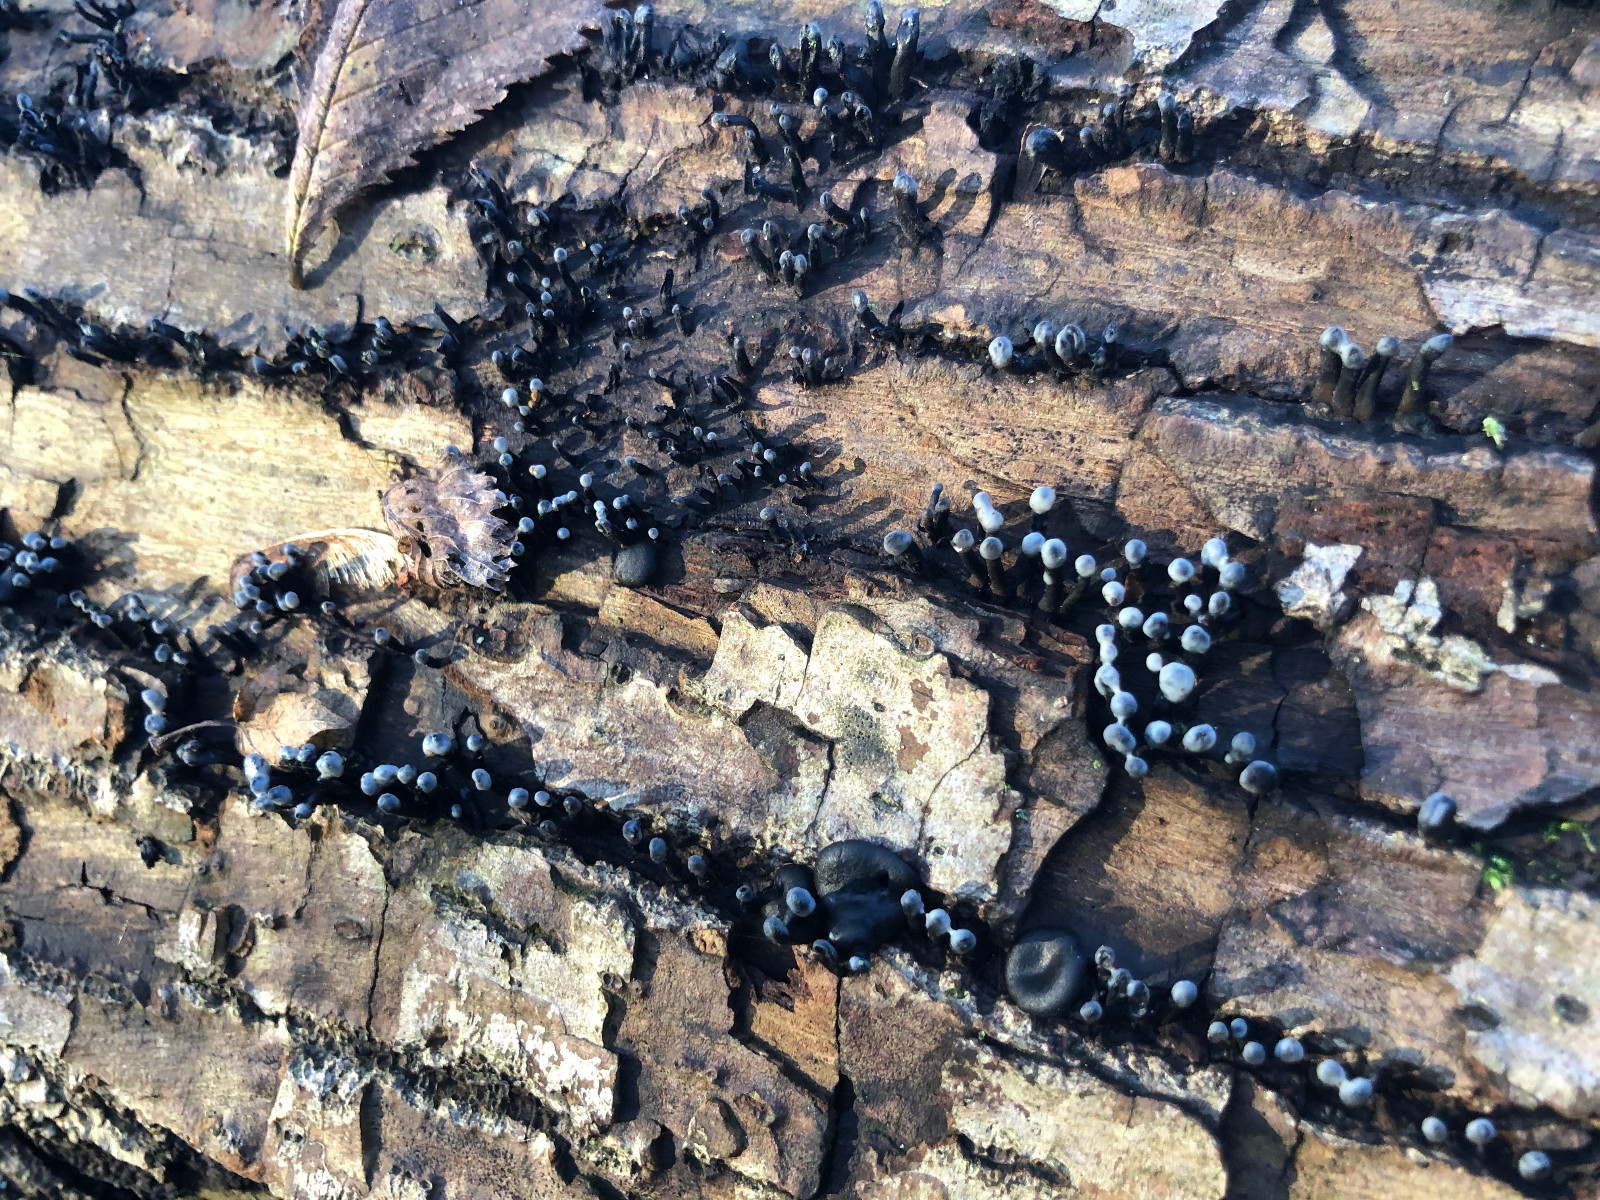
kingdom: Fungi
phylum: Ascomycota
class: Leotiomycetes
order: Helotiales
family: Bulgariaceae
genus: Holwaya
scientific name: Holwaya mucida
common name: lindeskive
